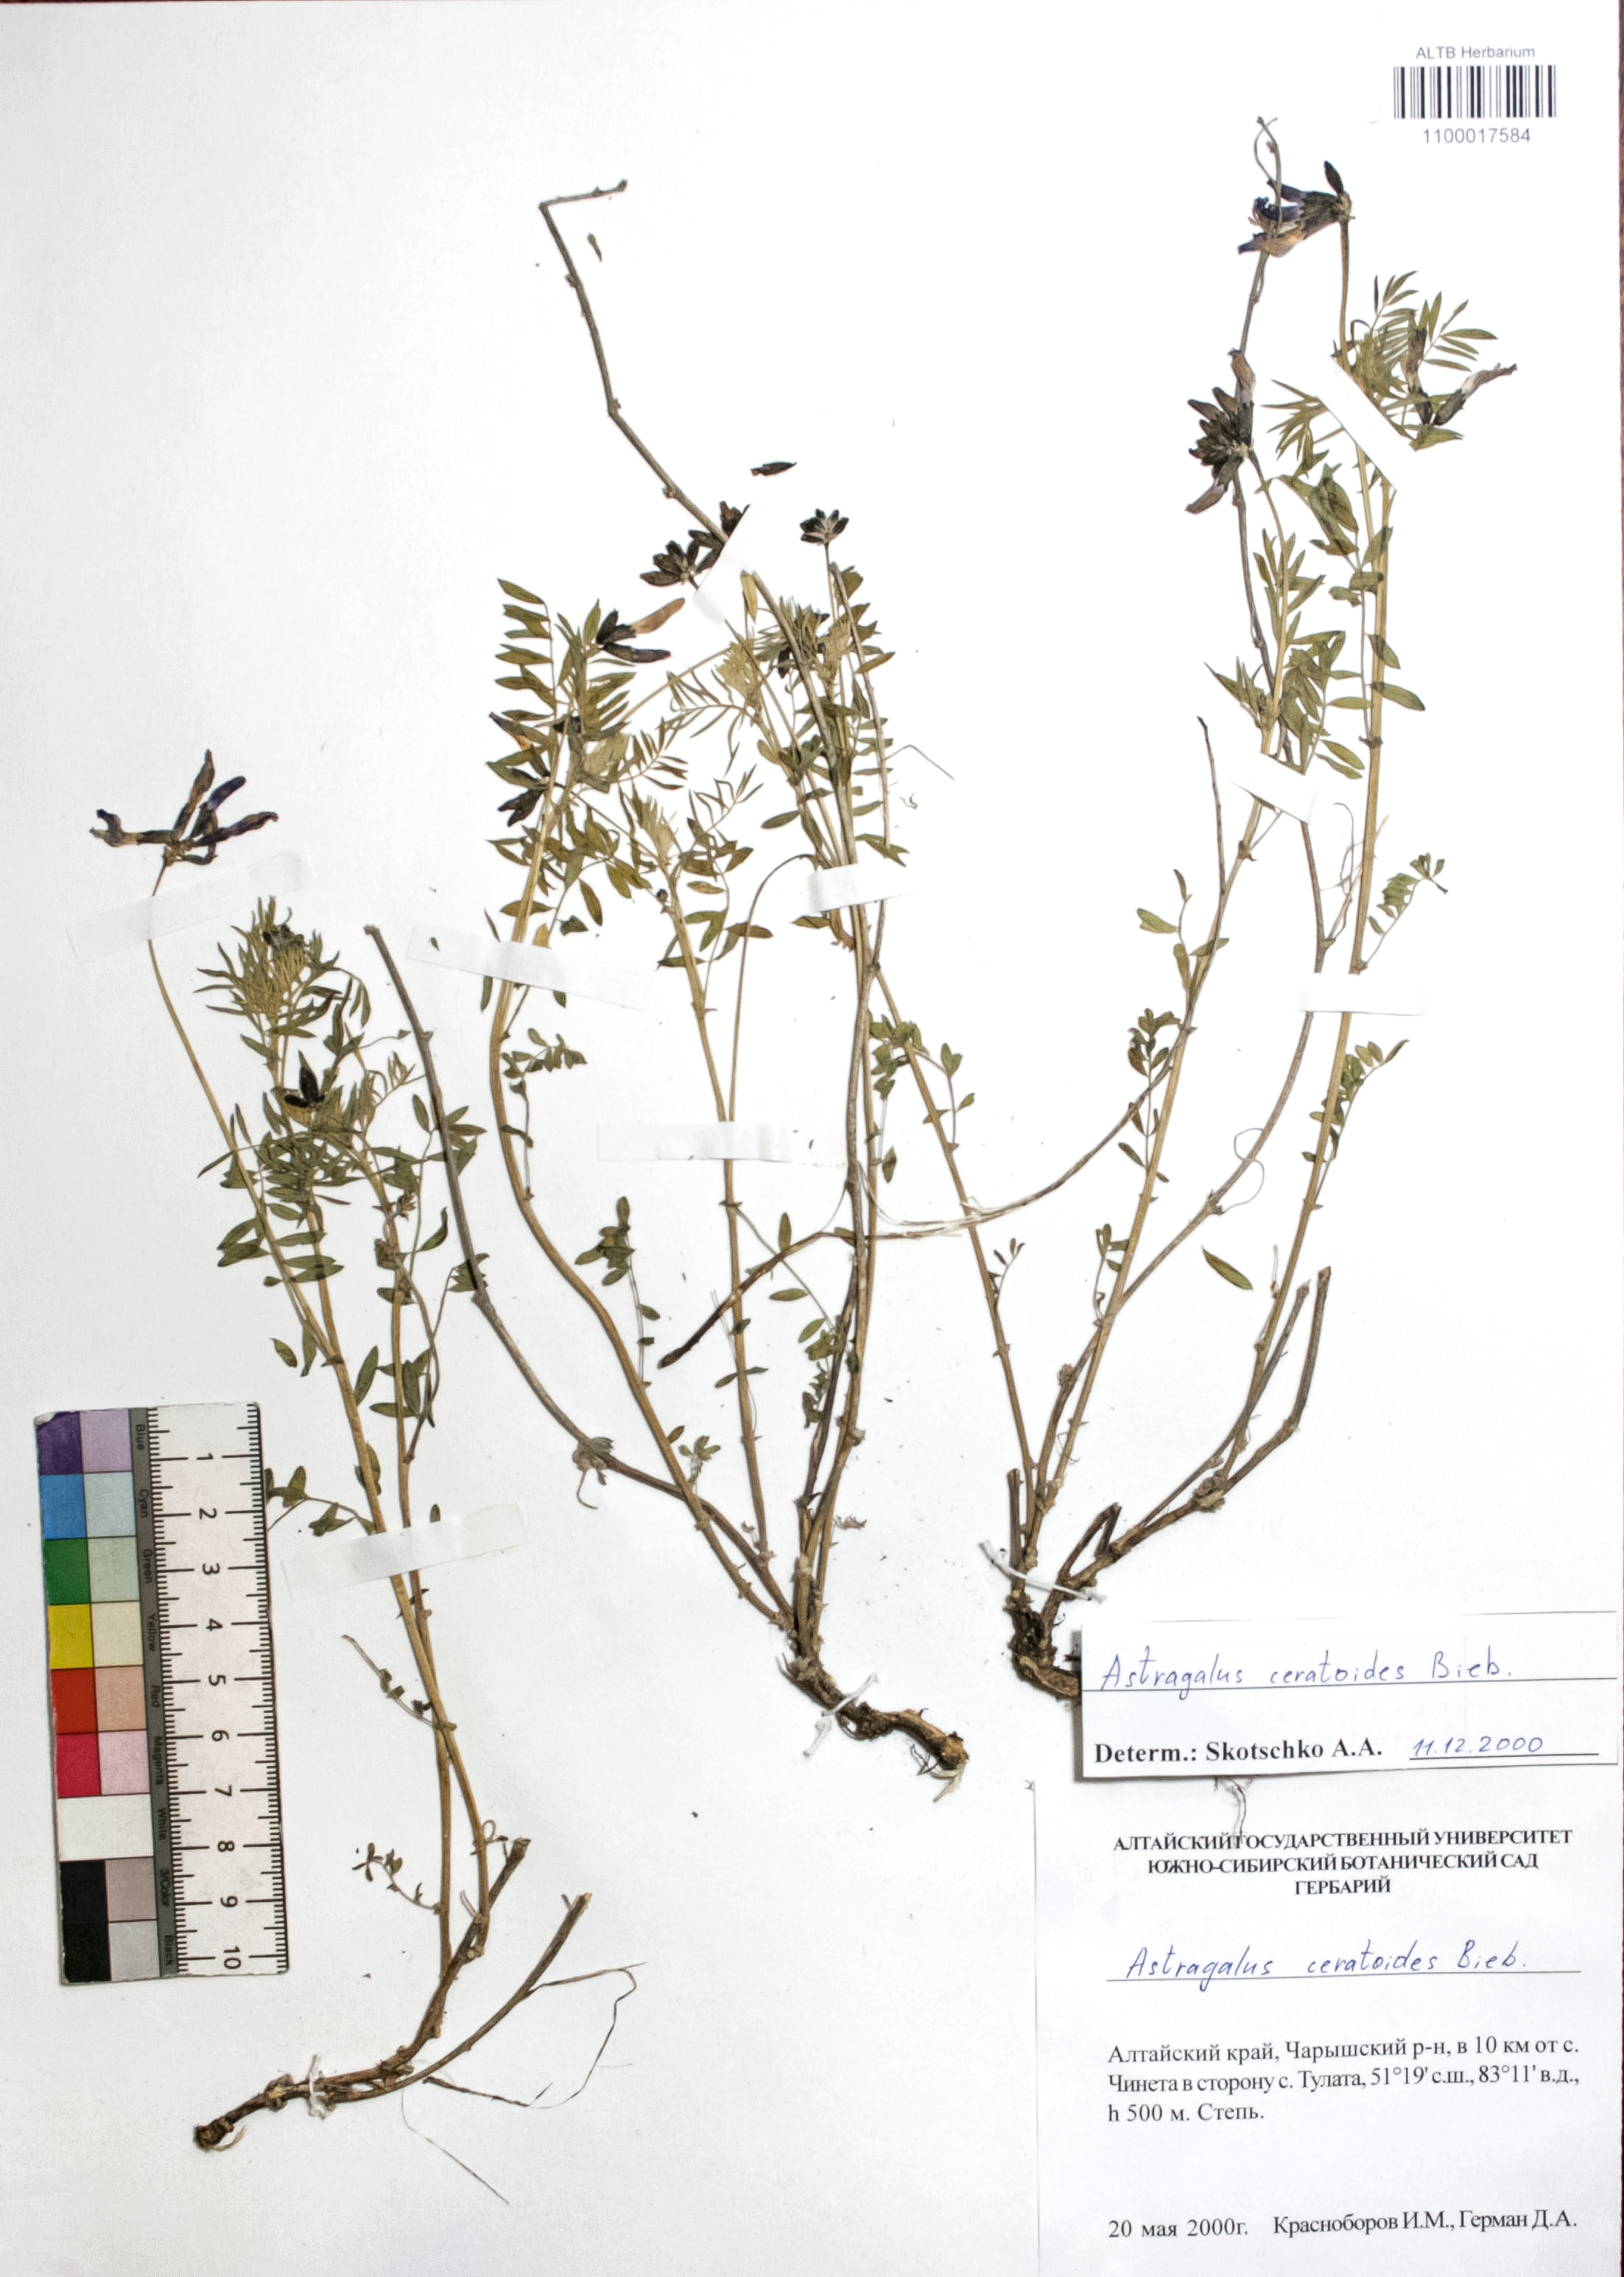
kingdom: Plantae
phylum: Tracheophyta
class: Magnoliopsida
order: Fabales
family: Fabaceae
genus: Astragalus
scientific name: Astragalus ceratoides
